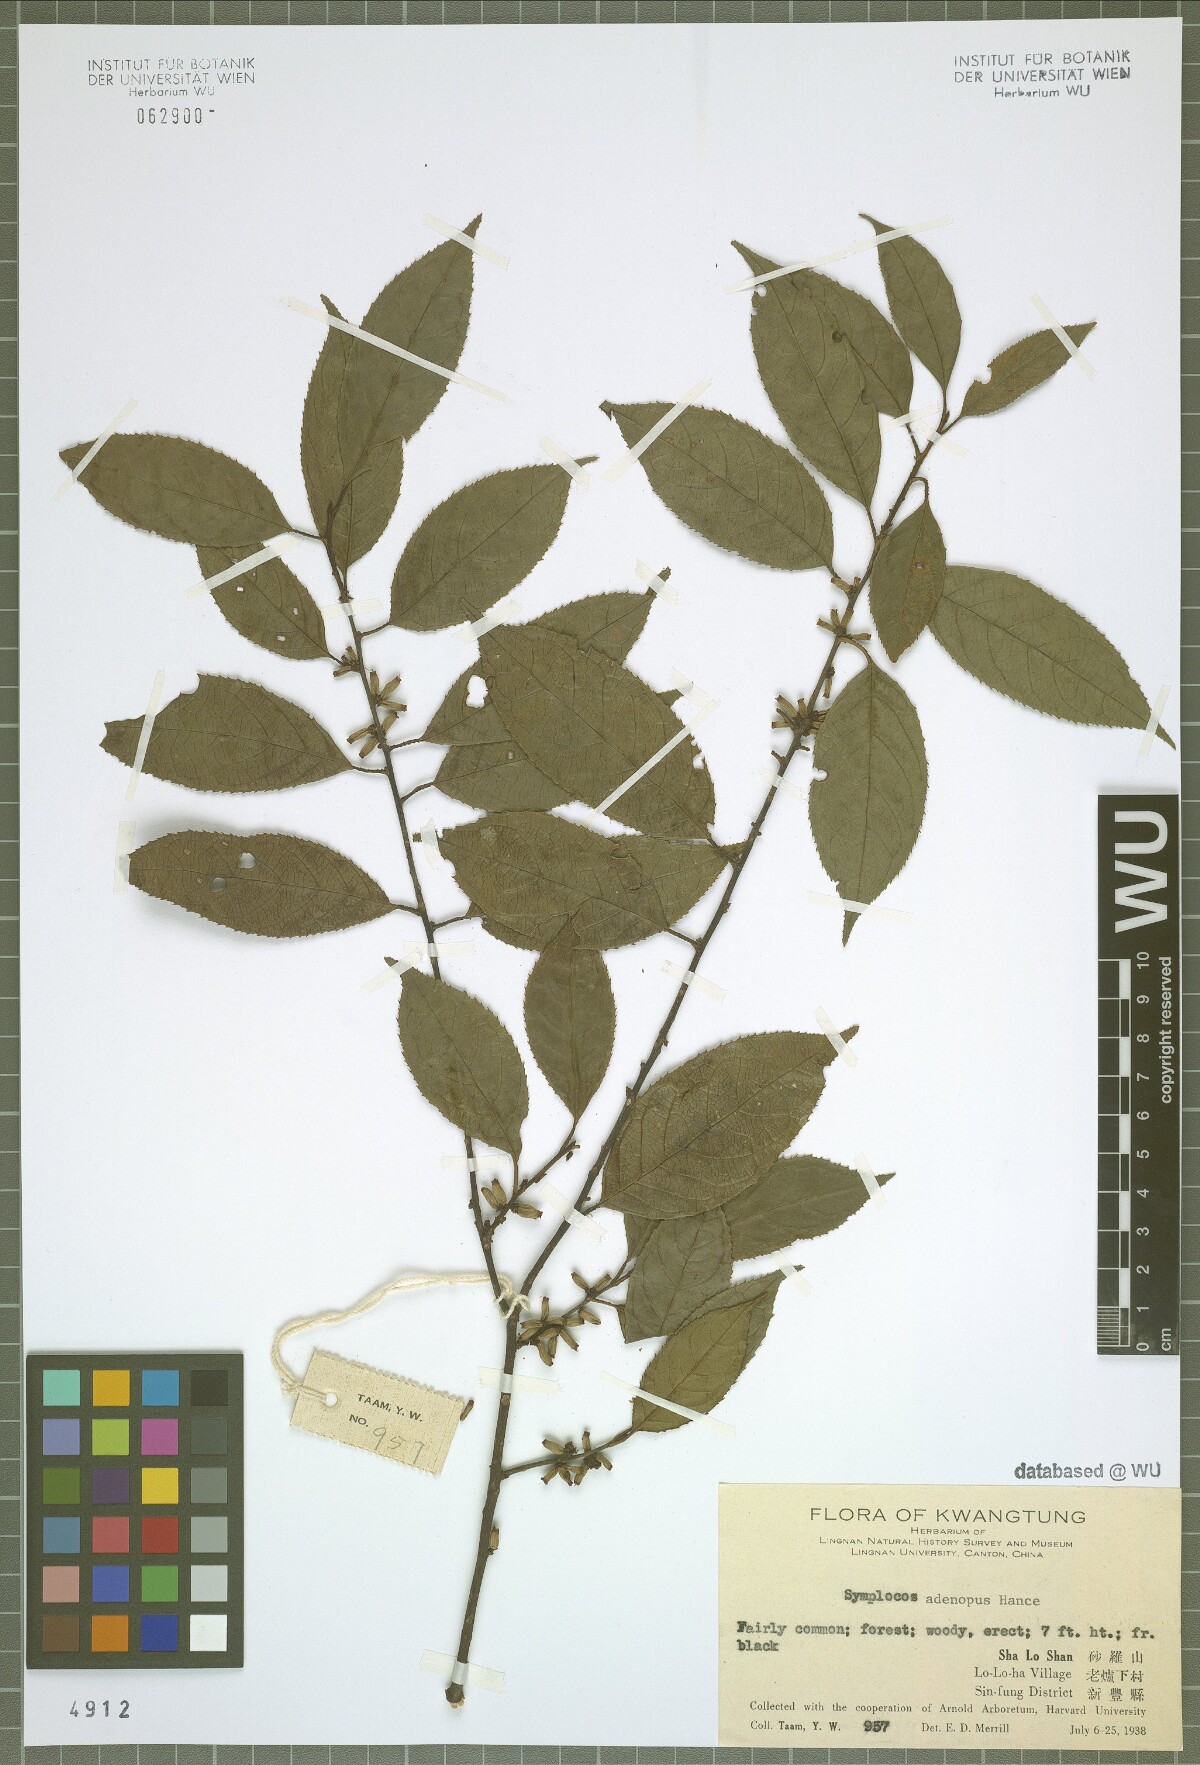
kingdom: Plantae
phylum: Tracheophyta
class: Magnoliopsida
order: Ericales
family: Symplocaceae
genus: Symplocos
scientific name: Symplocos
